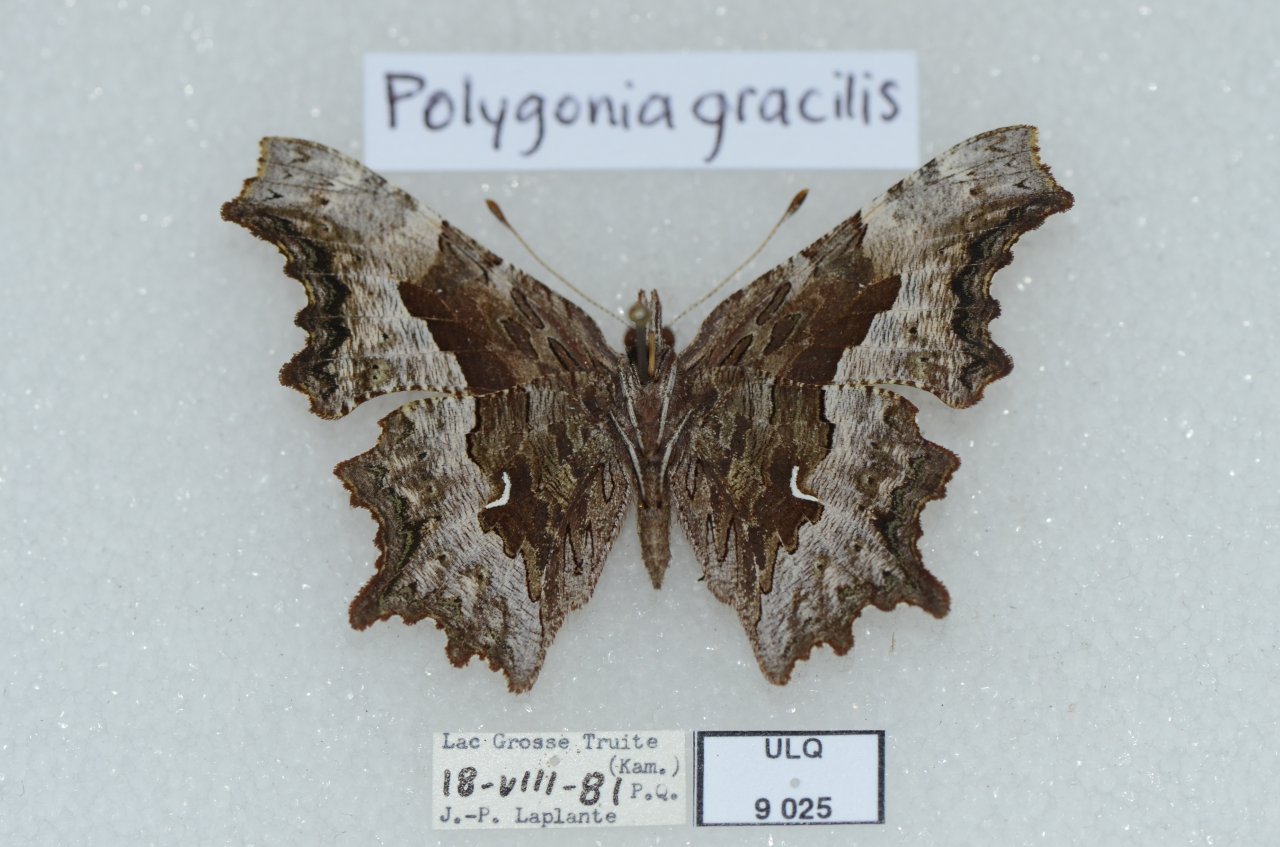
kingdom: Animalia
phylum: Arthropoda
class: Insecta
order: Lepidoptera
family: Nymphalidae
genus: Polygonia
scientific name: Polygonia gracilis
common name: Hoary Comma
